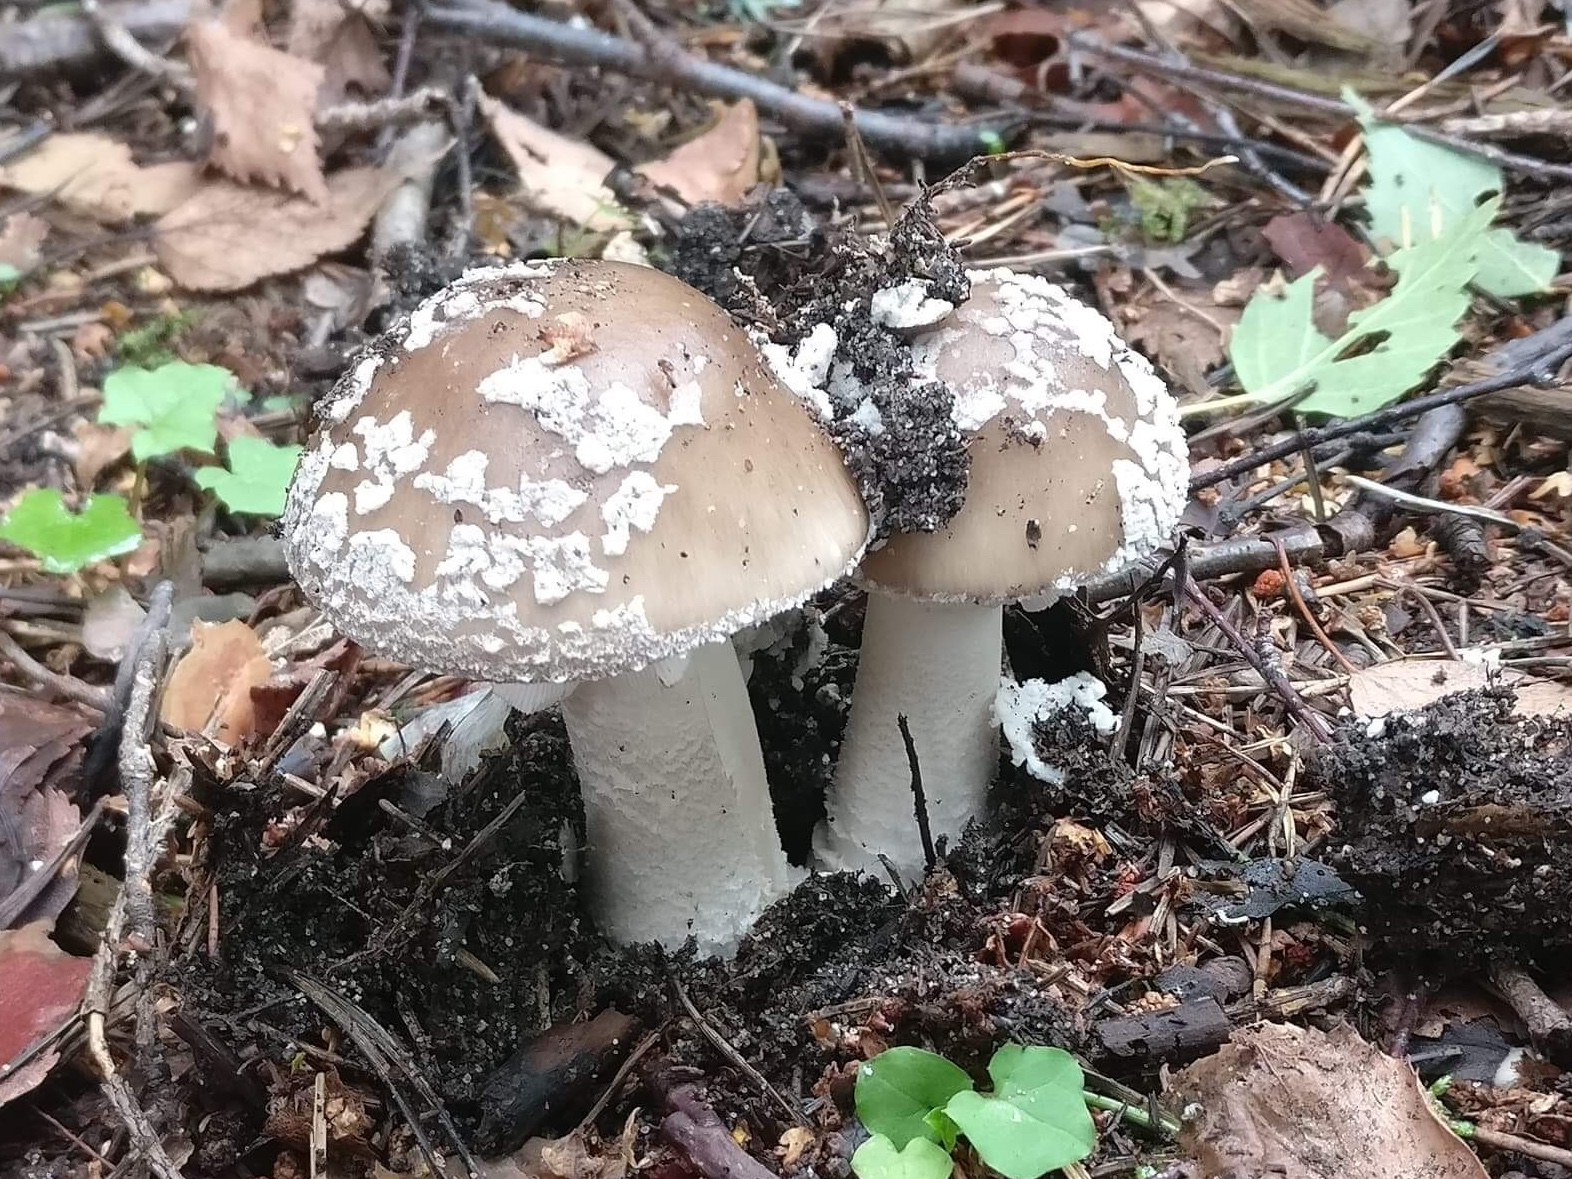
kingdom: Fungi
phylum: Basidiomycota
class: Agaricomycetes
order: Agaricales
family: Amanitaceae
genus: Amanita
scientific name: Amanita pantherina
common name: panter-fluesvamp
